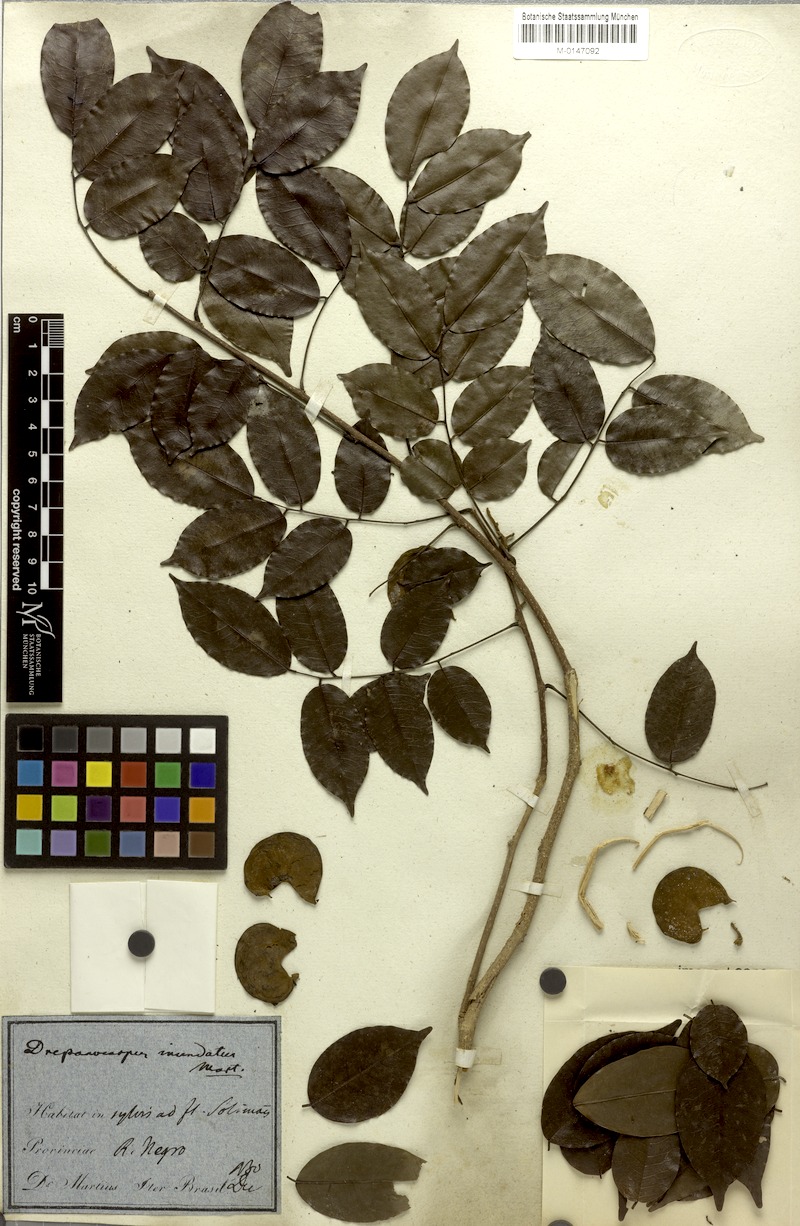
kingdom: Plantae
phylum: Tracheophyta
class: Magnoliopsida
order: Fabales
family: Fabaceae
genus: Machaerium
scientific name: Machaerium inundatum
